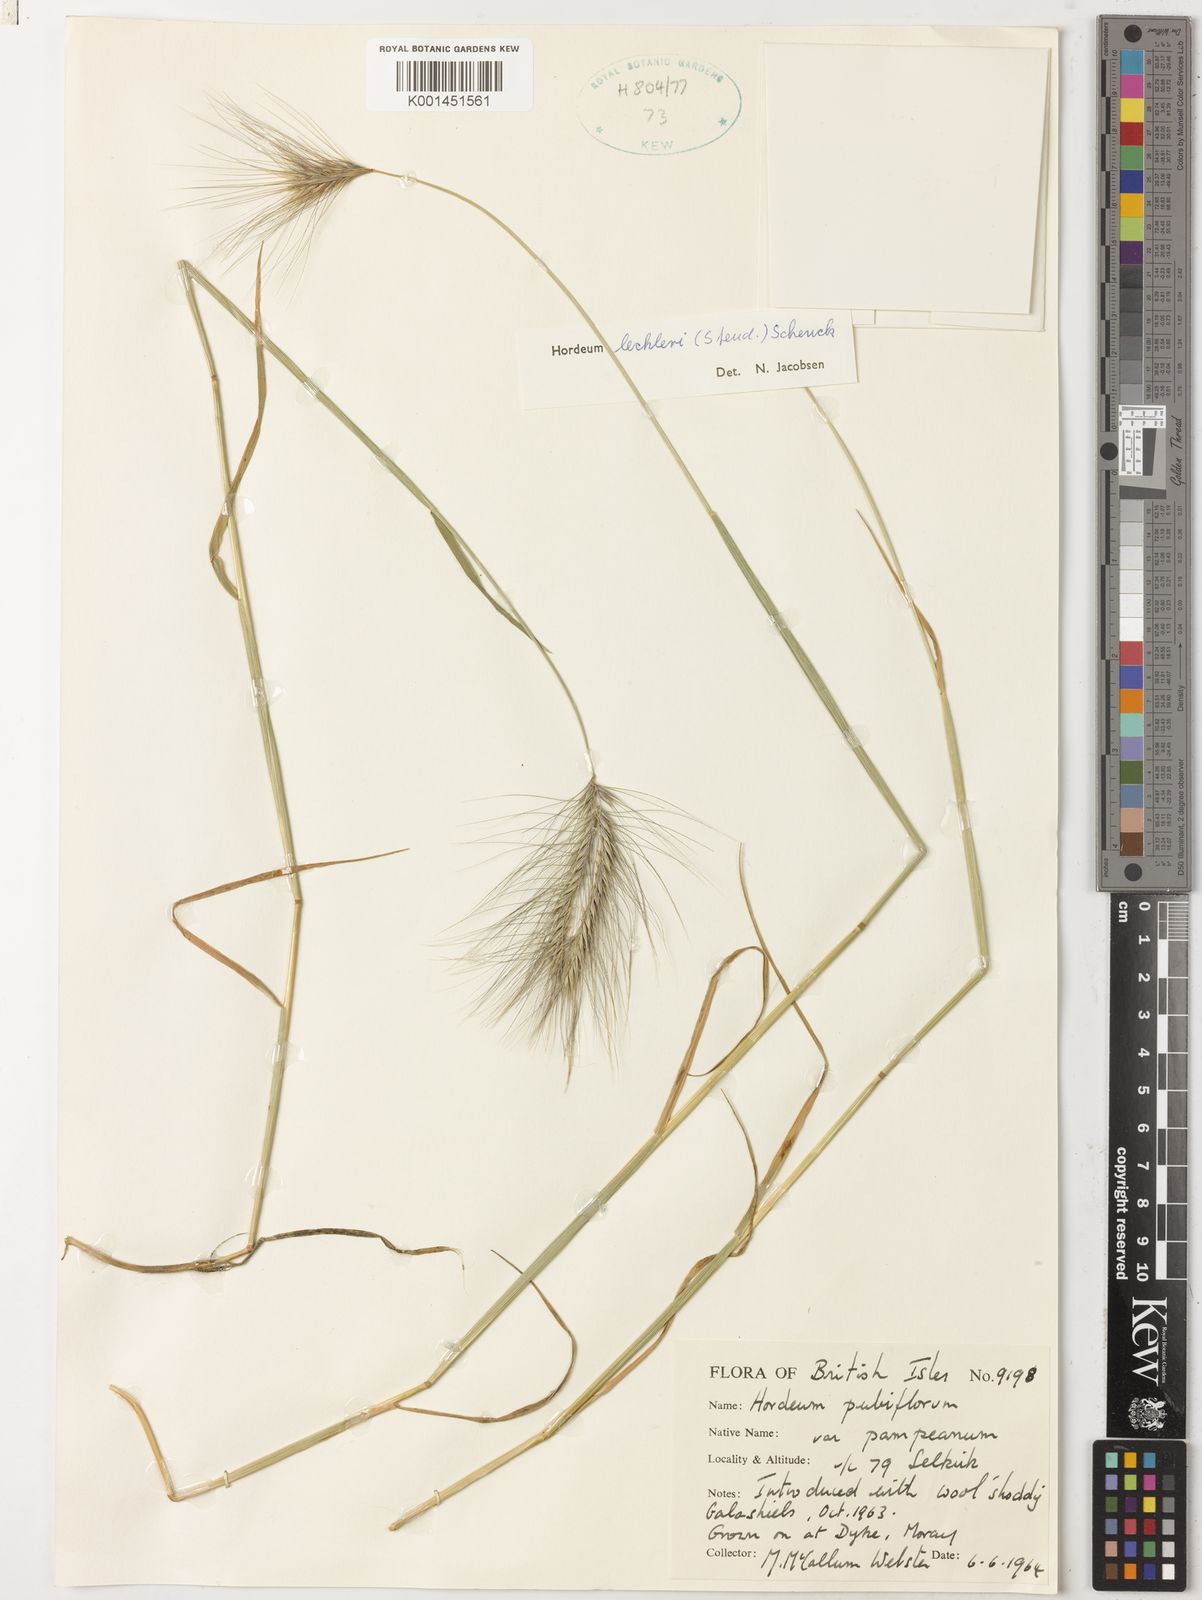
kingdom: Plantae
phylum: Tracheophyta
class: Liliopsida
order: Poales
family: Poaceae
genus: Hordeum
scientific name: Hordeum lechleri
